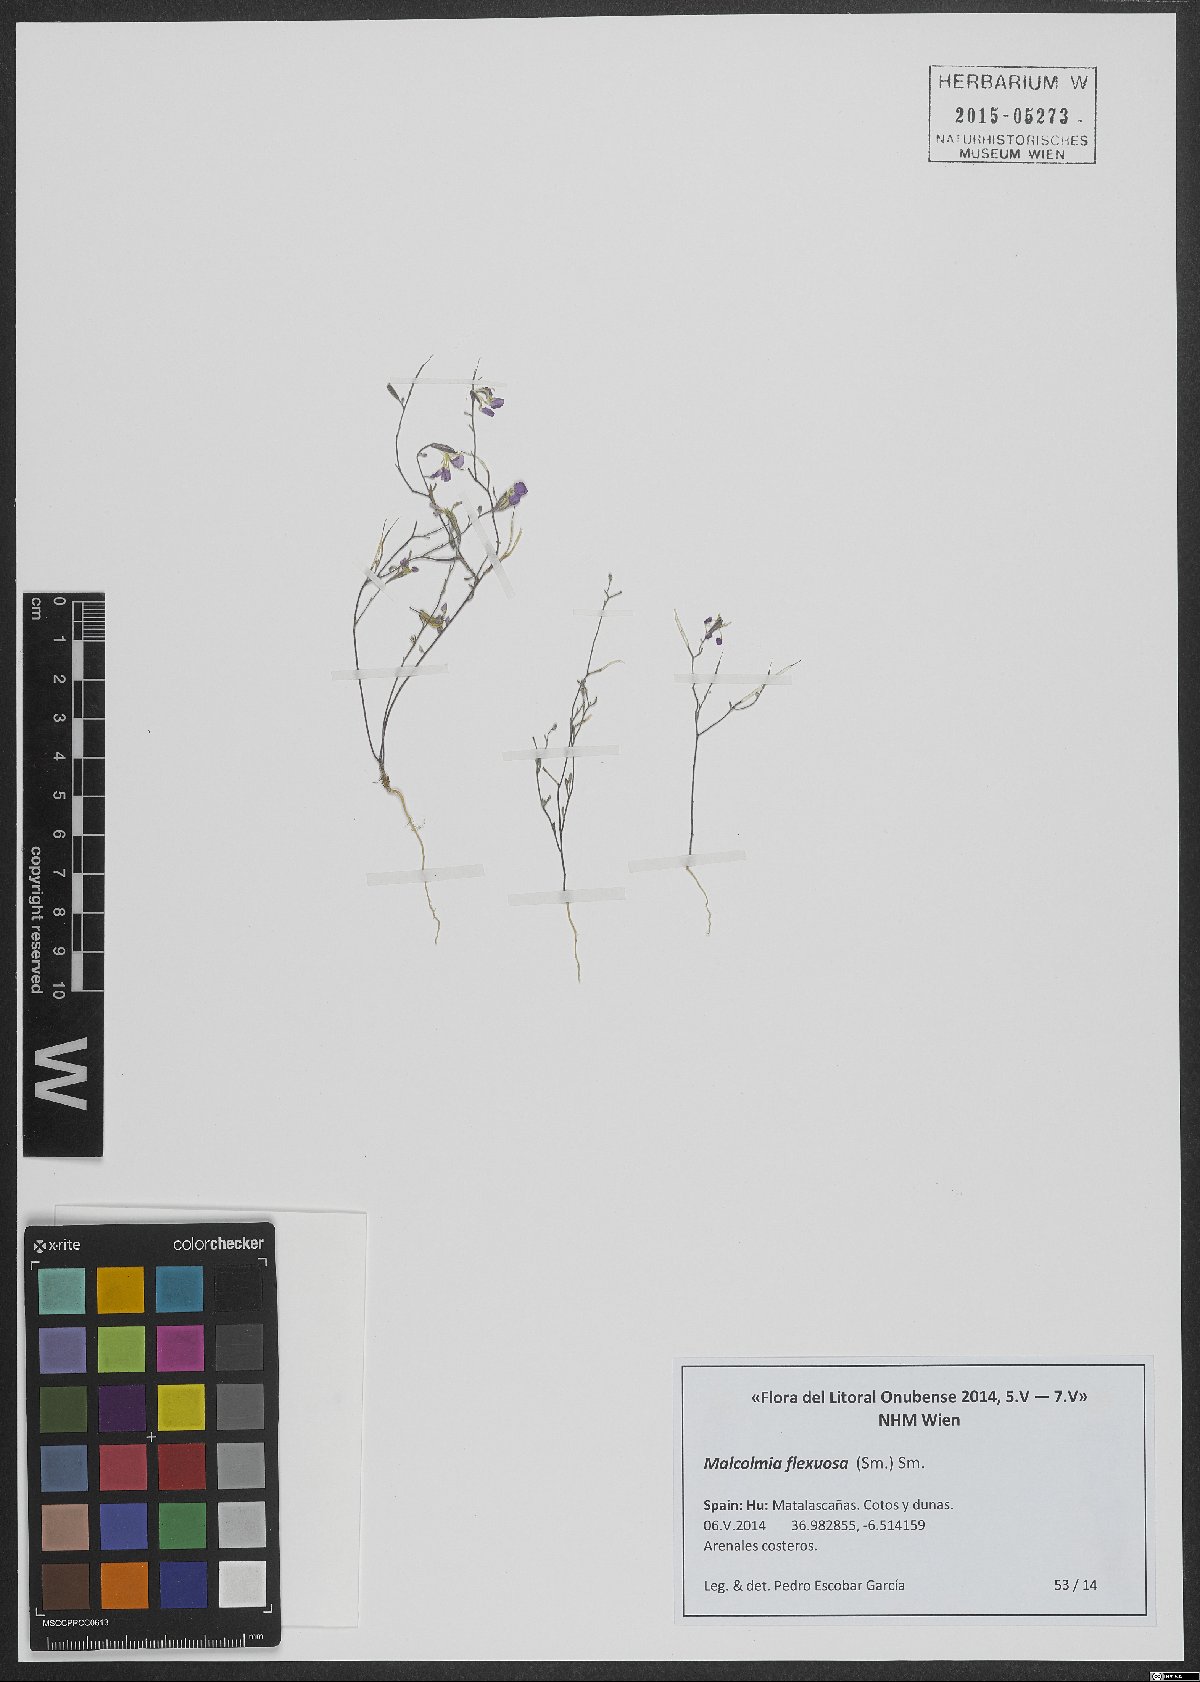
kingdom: Plantae
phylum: Tracheophyta
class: Magnoliopsida
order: Brassicales
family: Brassicaceae
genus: Malcolmia
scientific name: Malcolmia flexuosa
